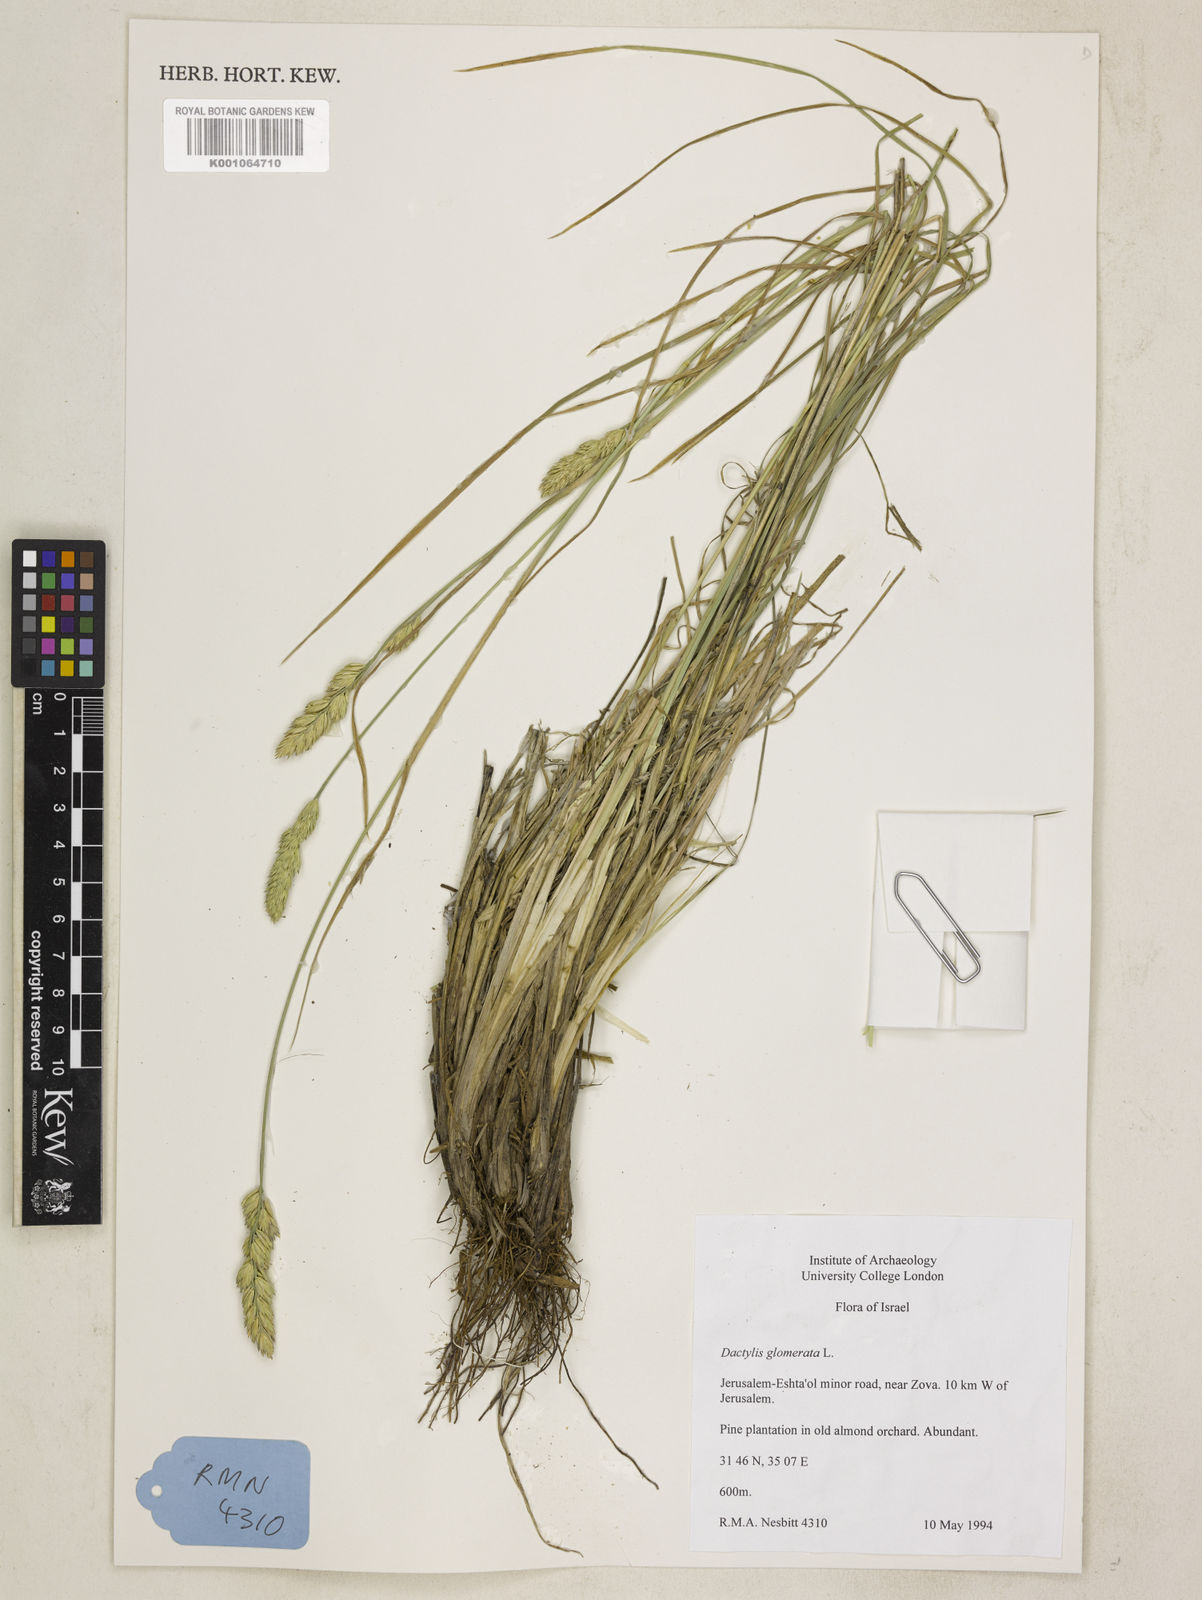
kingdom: Plantae
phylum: Tracheophyta
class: Liliopsida
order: Poales
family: Poaceae
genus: Dactylis
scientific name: Dactylis glomerata
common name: Orchardgrass
